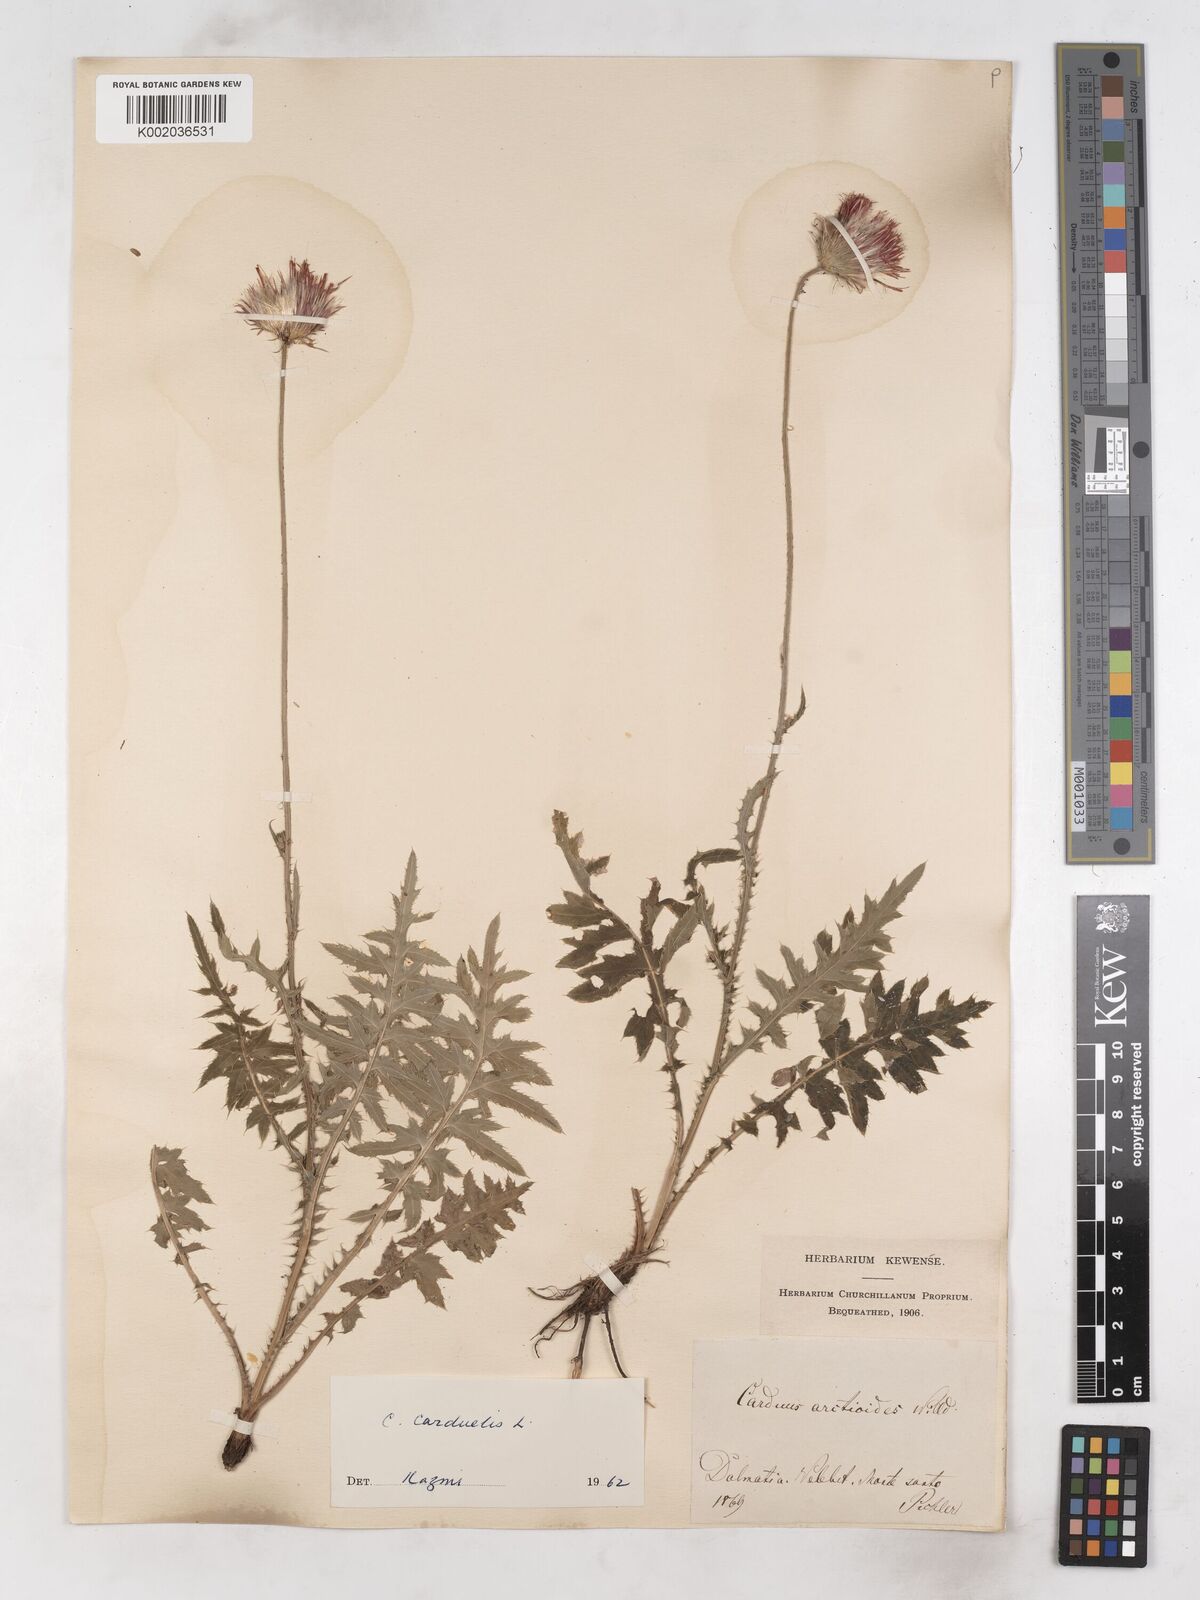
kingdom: Plantae
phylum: Tracheophyta
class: Magnoliopsida
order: Asterales
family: Asteraceae
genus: Carduus
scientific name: Carduus carduelis
